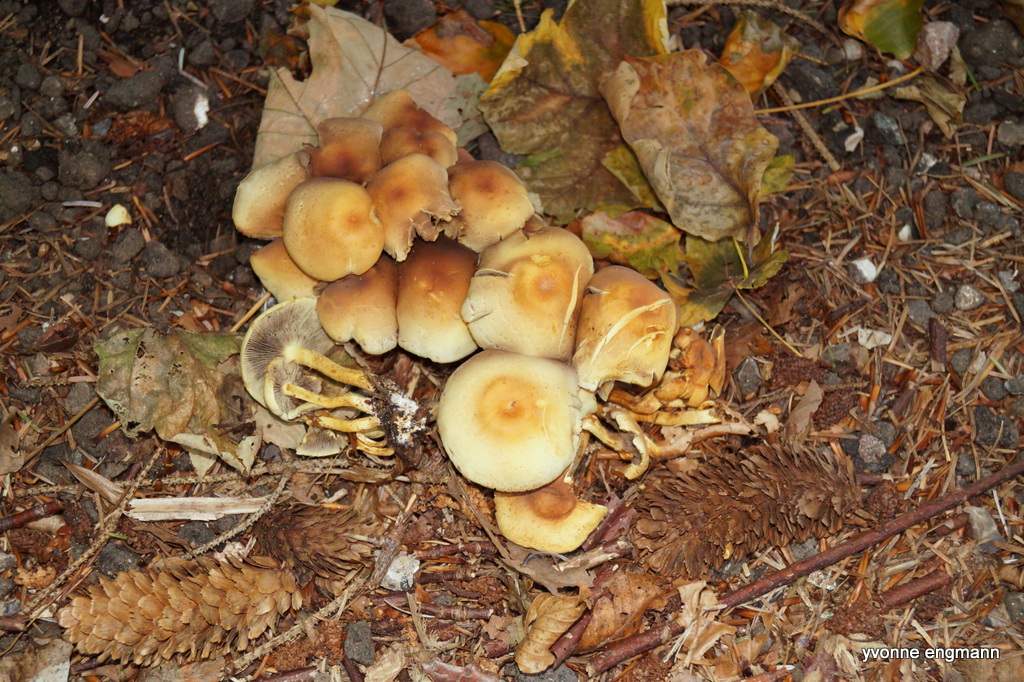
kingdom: Fungi
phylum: Basidiomycota
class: Agaricomycetes
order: Agaricales
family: Strophariaceae
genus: Hypholoma
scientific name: Hypholoma fasciculare
